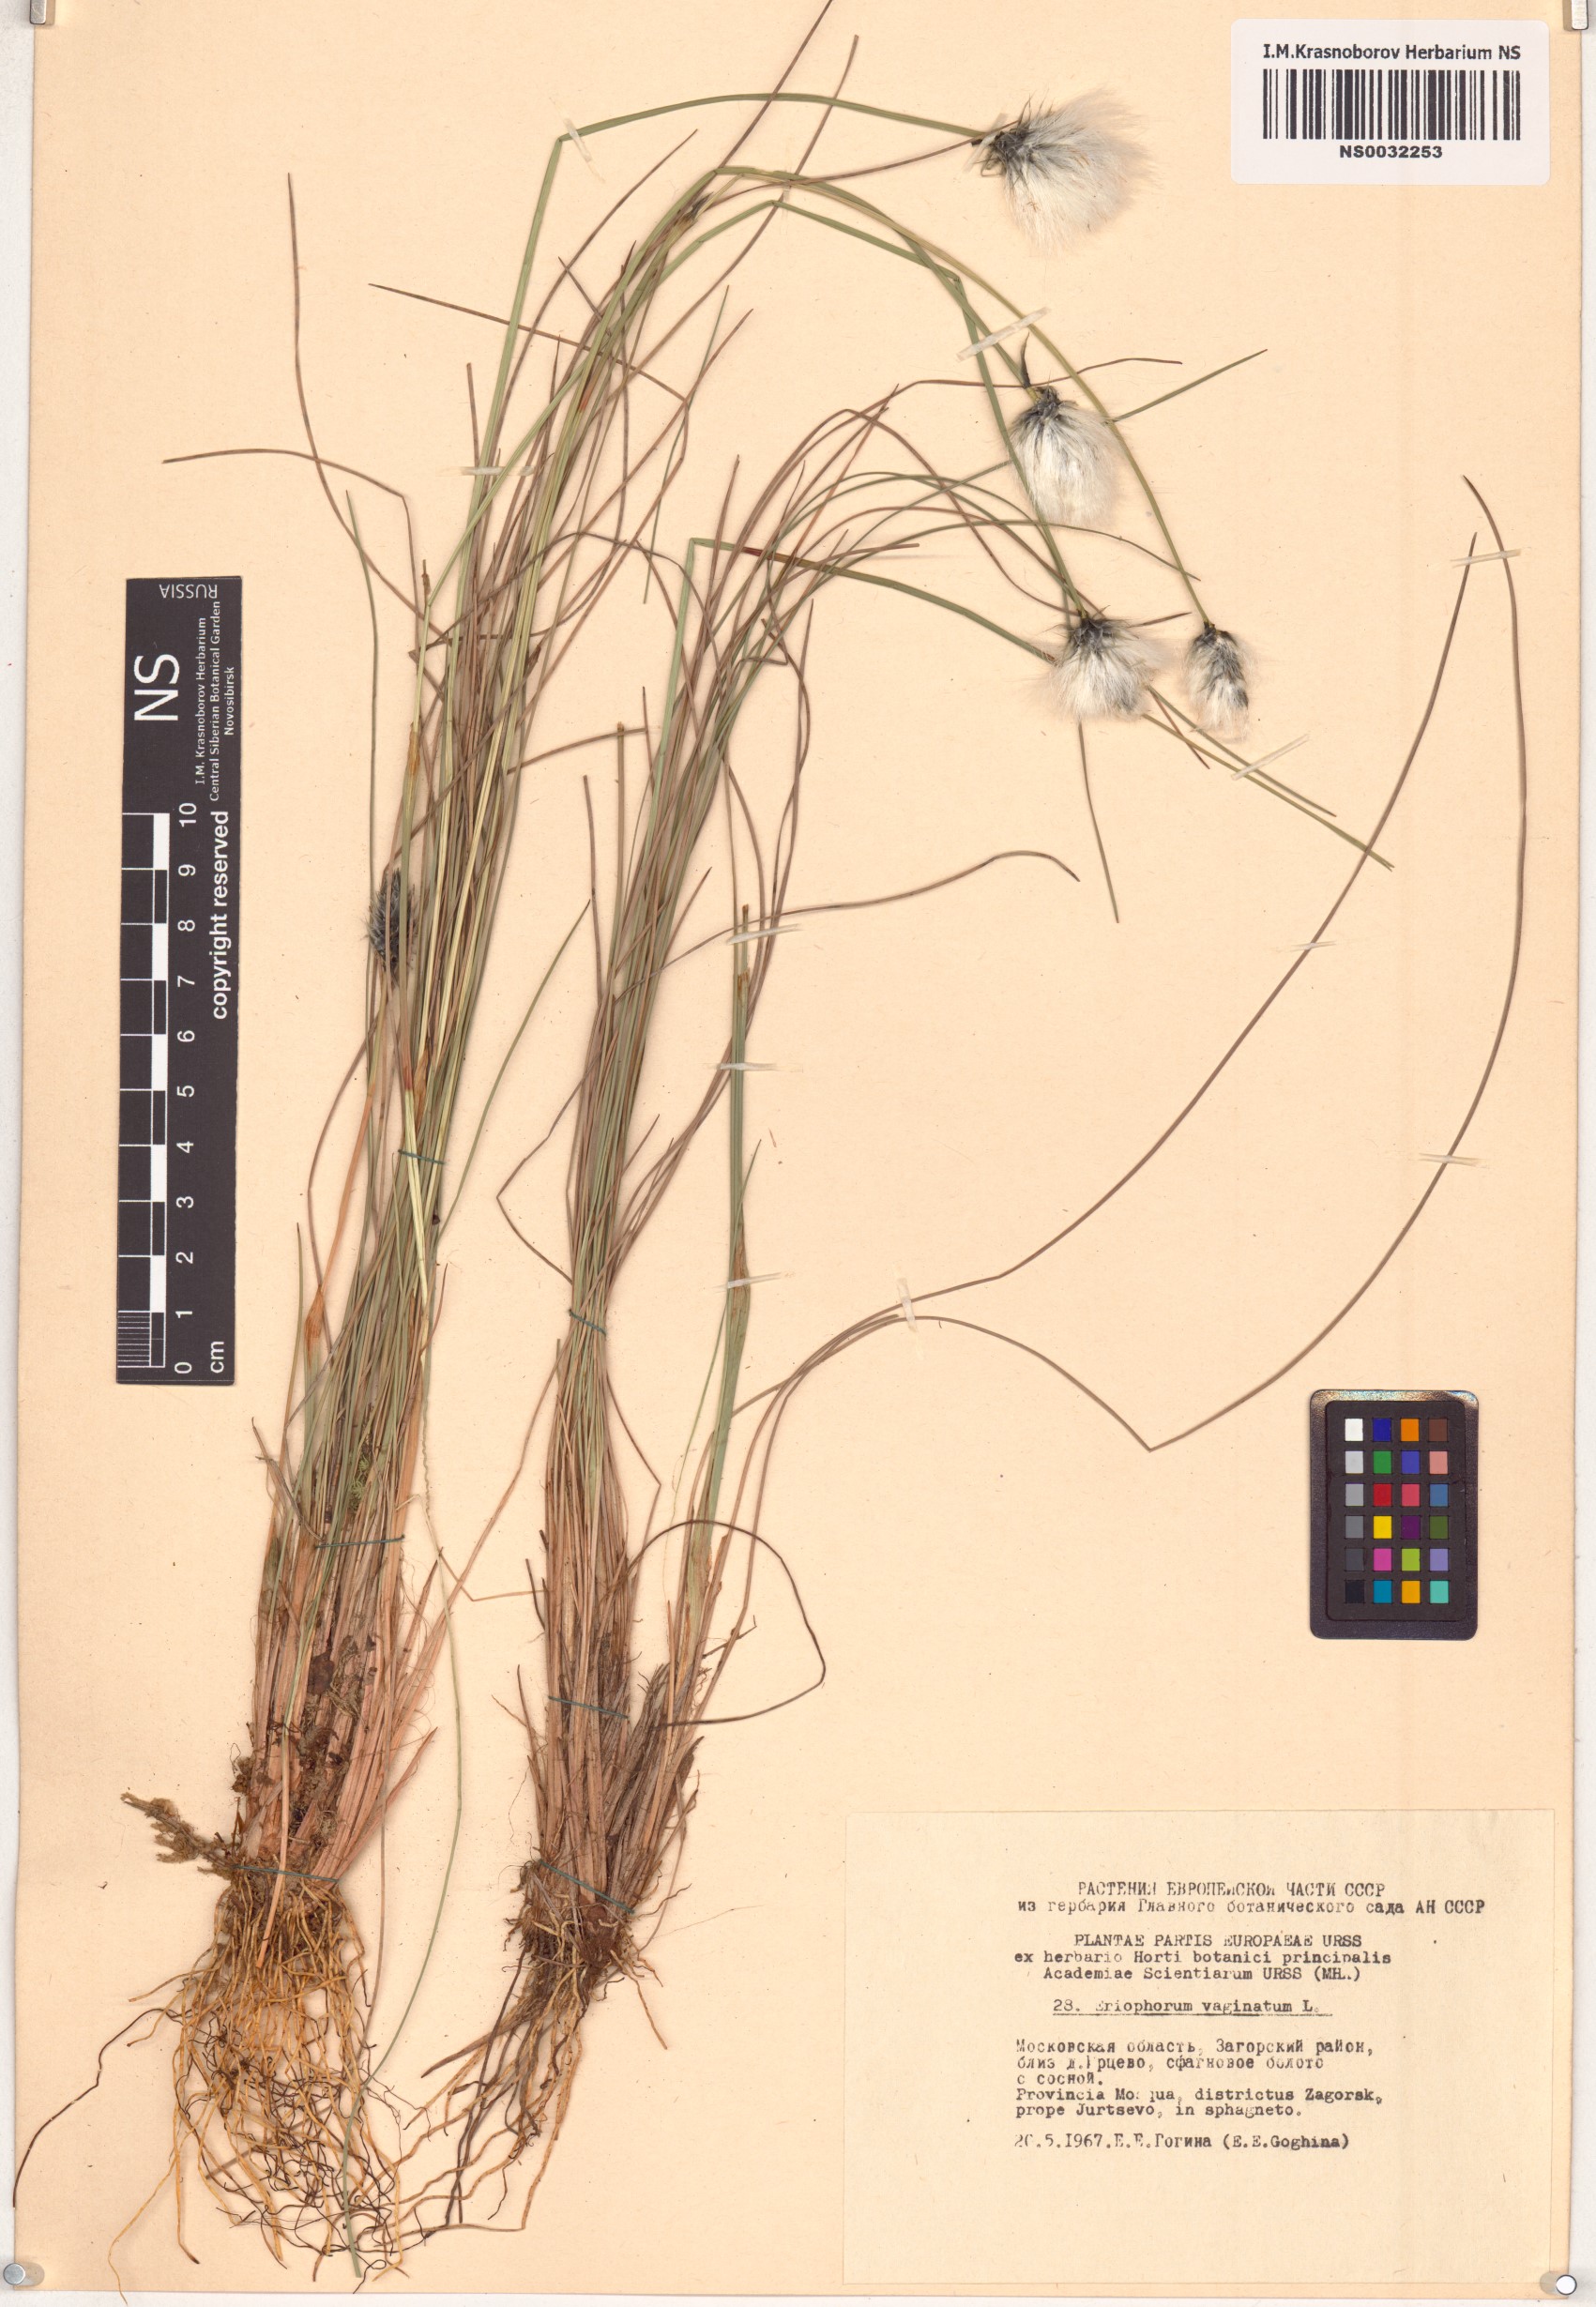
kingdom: Plantae
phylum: Tracheophyta
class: Liliopsida
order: Poales
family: Cyperaceae
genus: Eriophorum
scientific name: Eriophorum vaginatum
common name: Hare's-tail cottongrass
